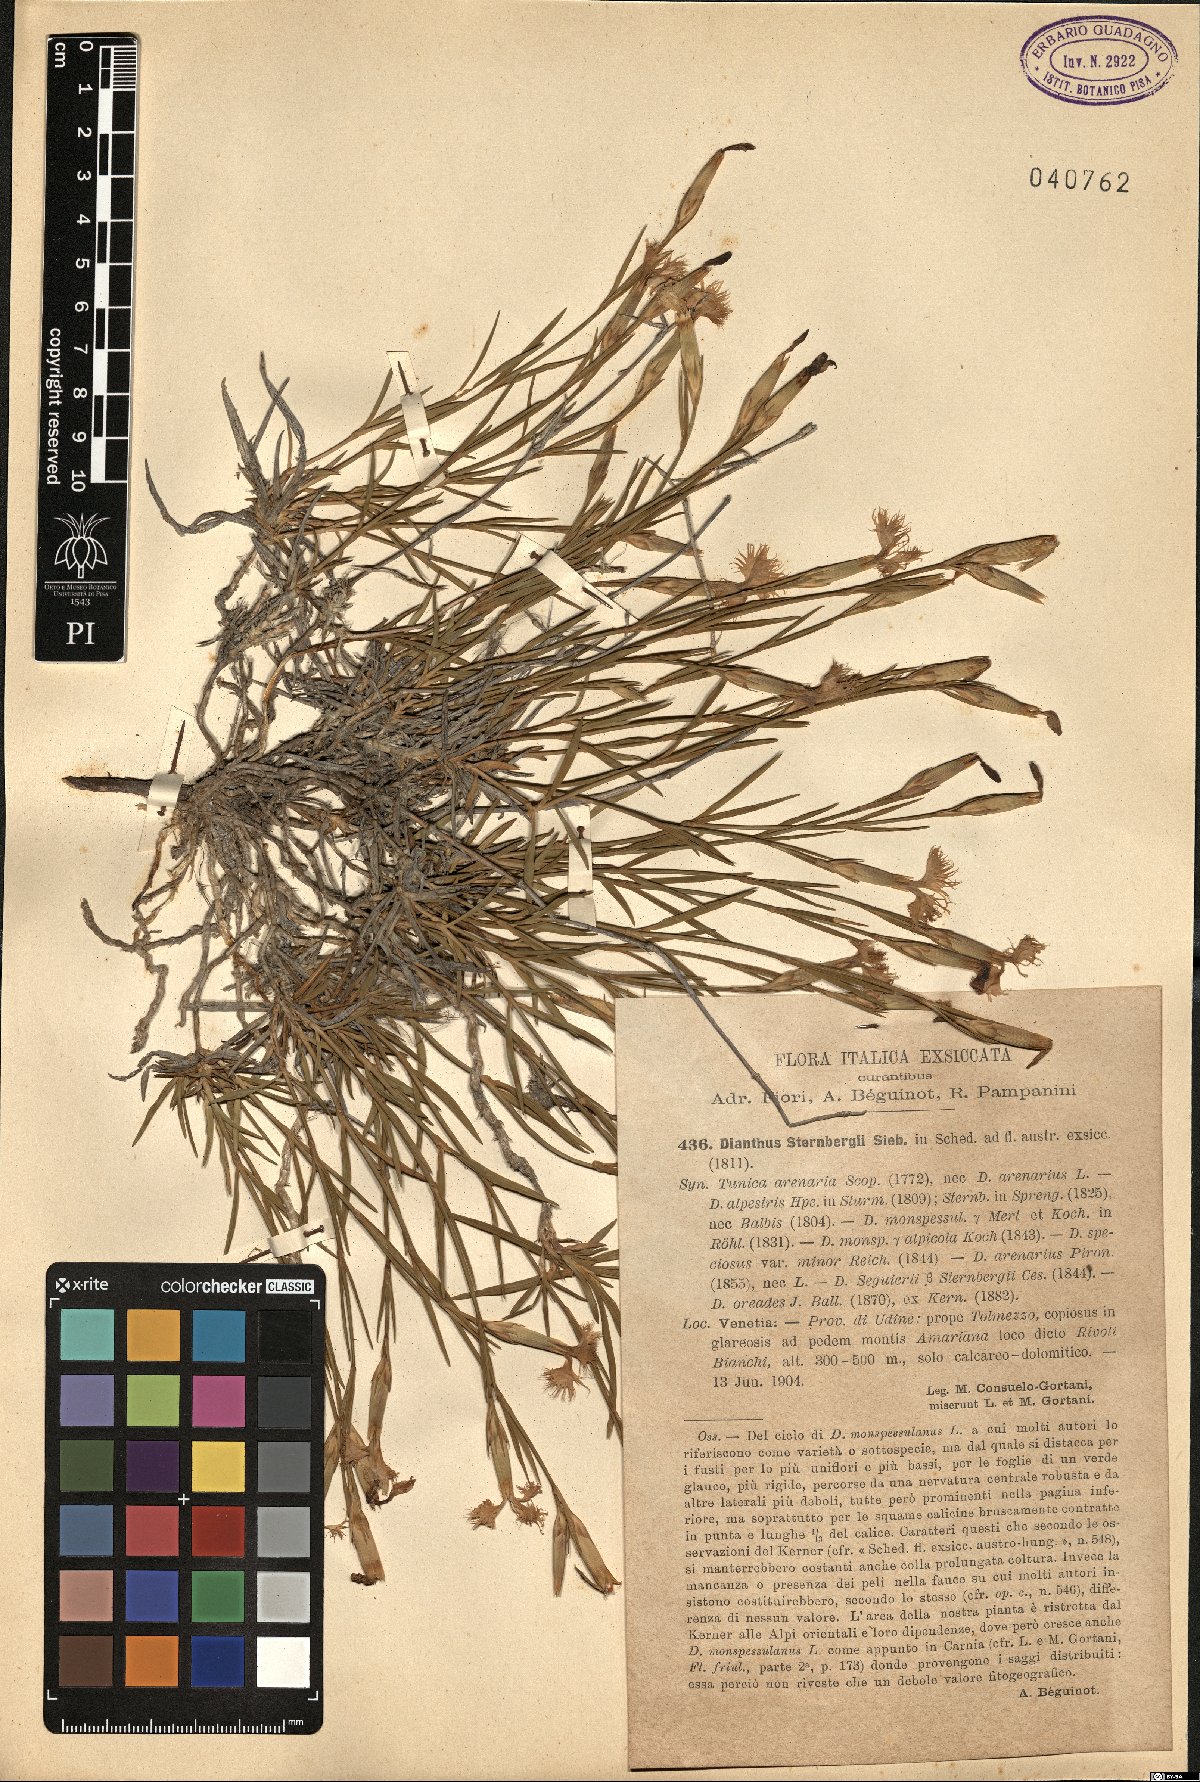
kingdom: Plantae
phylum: Tracheophyta
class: Magnoliopsida
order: Caryophyllales
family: Caryophyllaceae
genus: Dianthus
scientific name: Dianthus sternbergii
